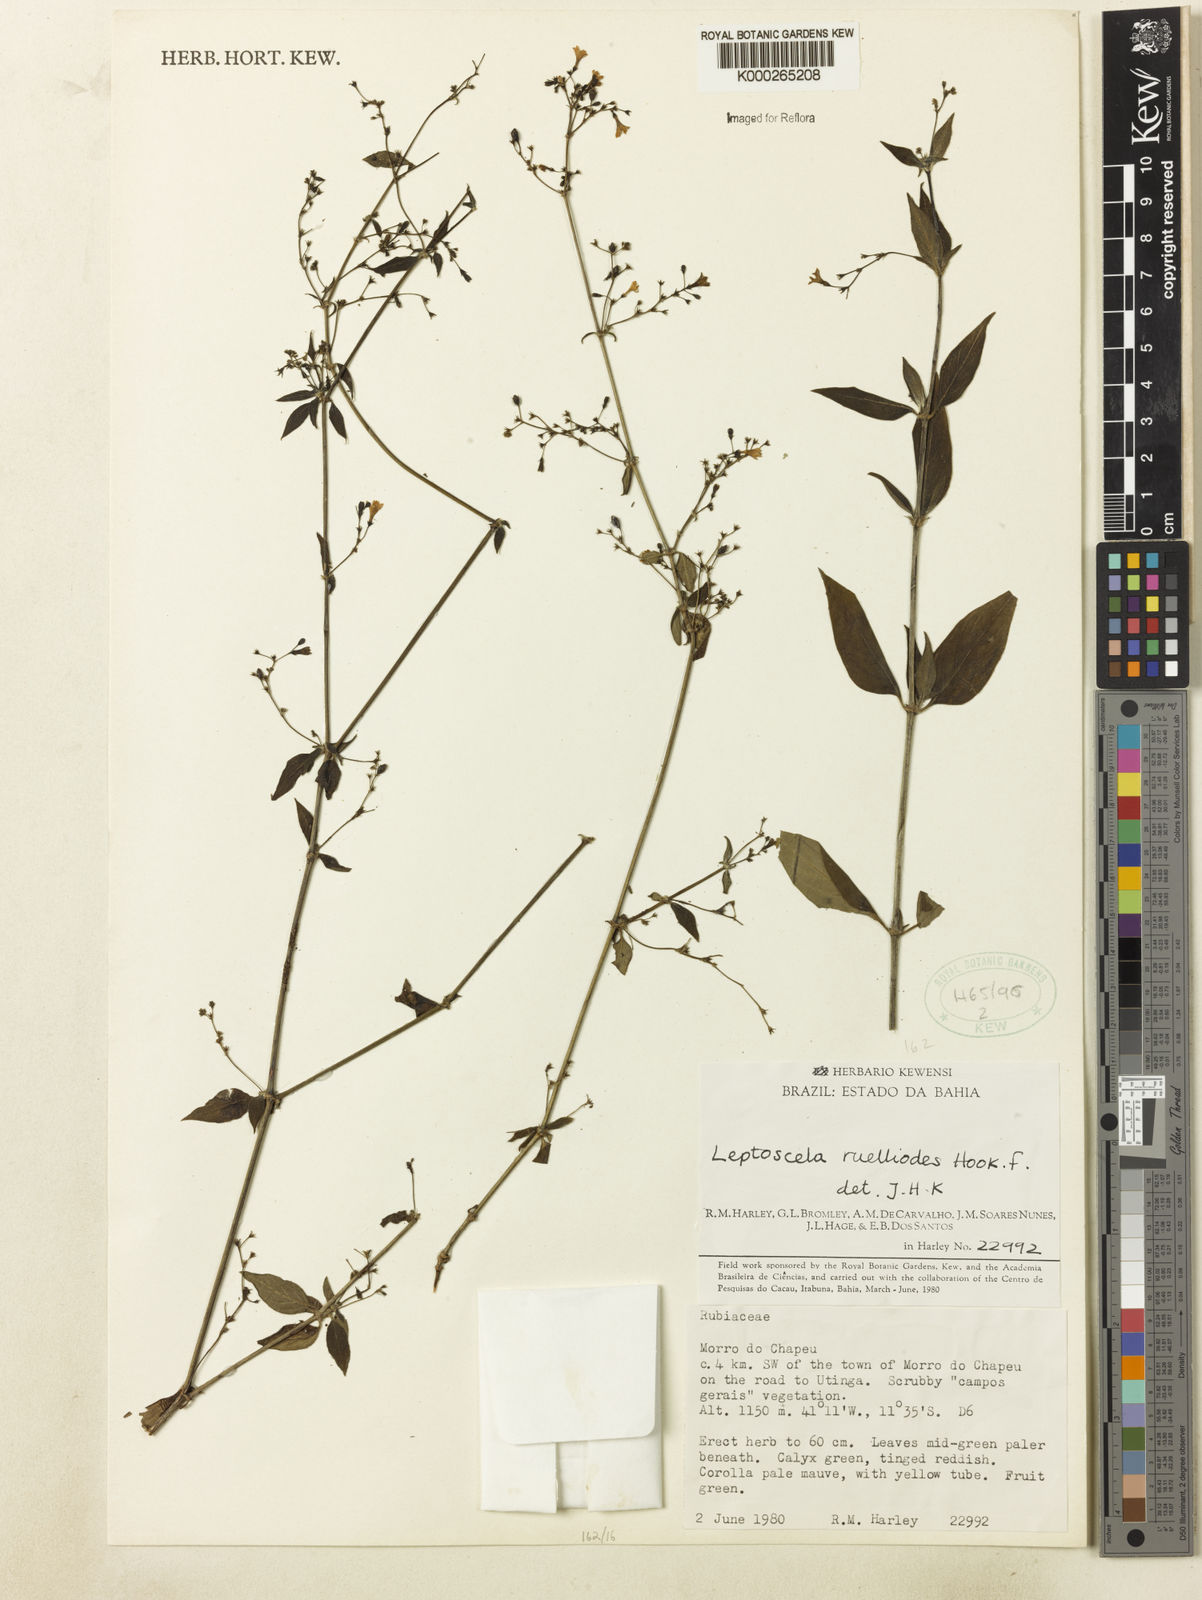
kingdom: Plantae
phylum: Tracheophyta
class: Magnoliopsida
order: Gentianales
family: Rubiaceae
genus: Leptoscela
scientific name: Leptoscela ruellioides
